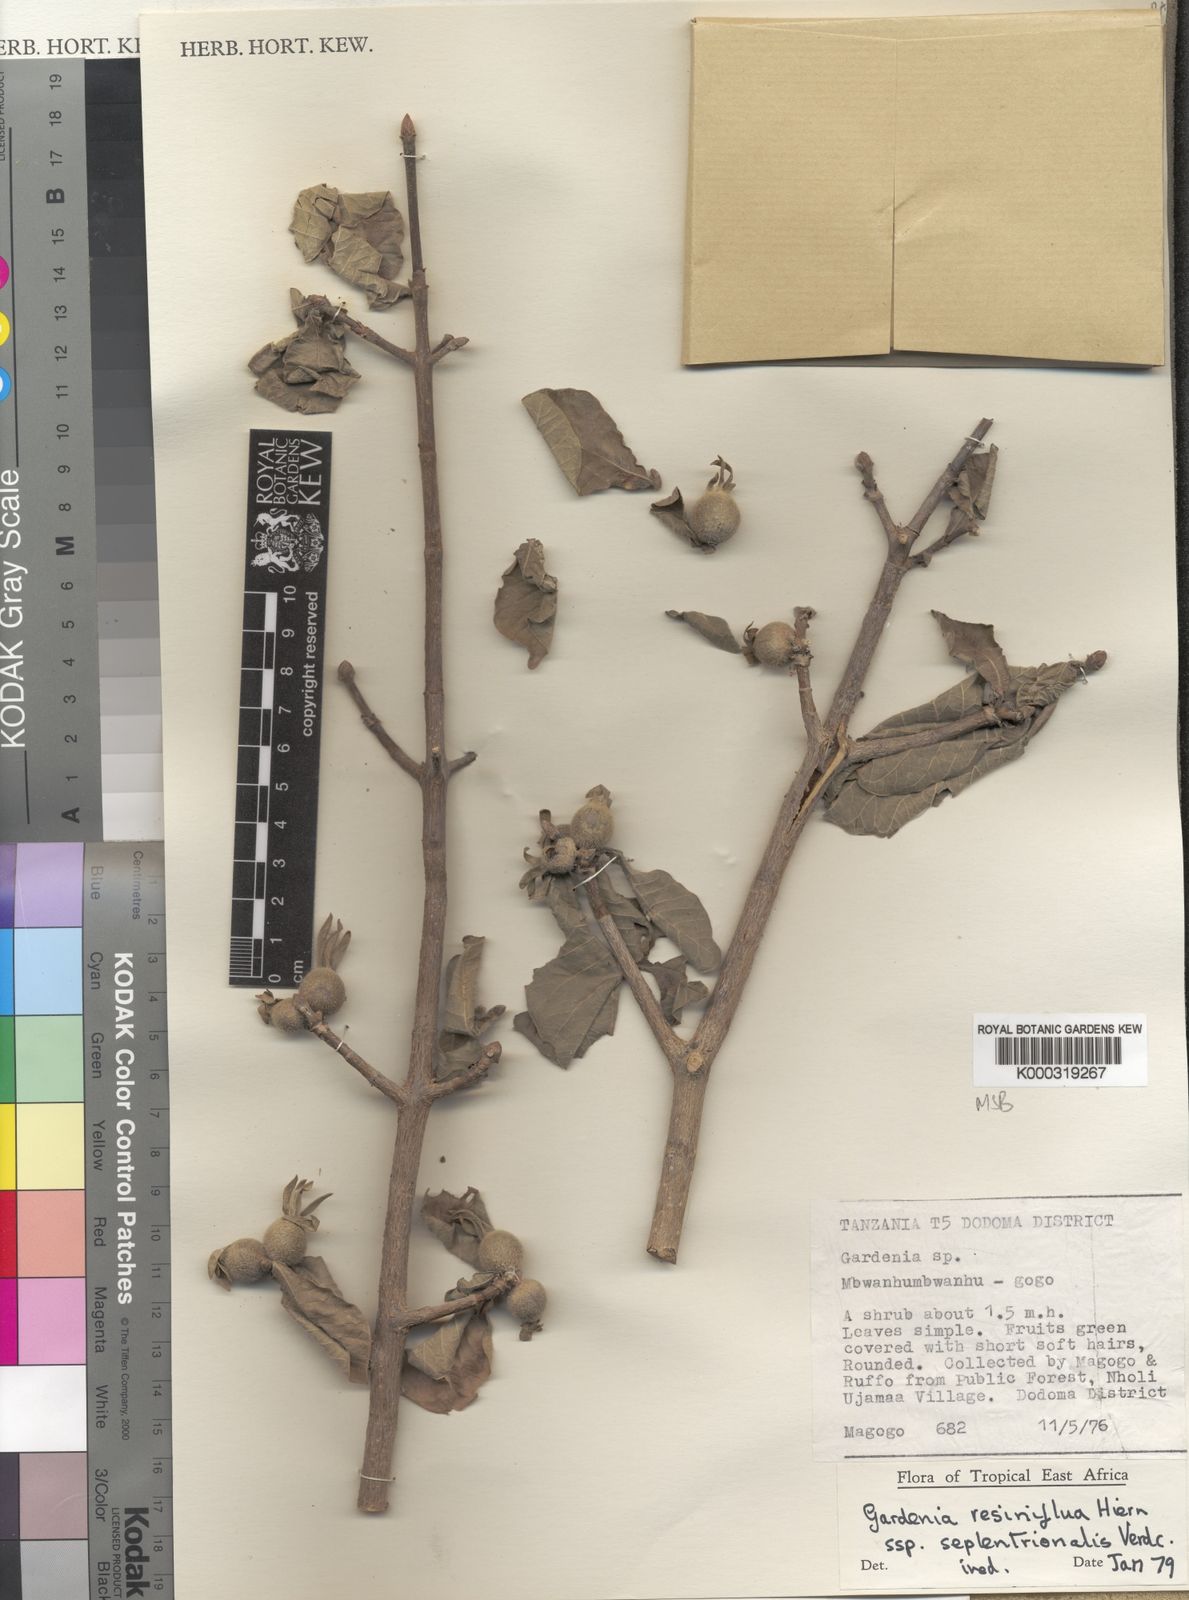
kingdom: Plantae
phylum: Tracheophyta
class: Magnoliopsida
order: Gentianales
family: Rubiaceae
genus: Gardenia
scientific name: Gardenia resiniflua
